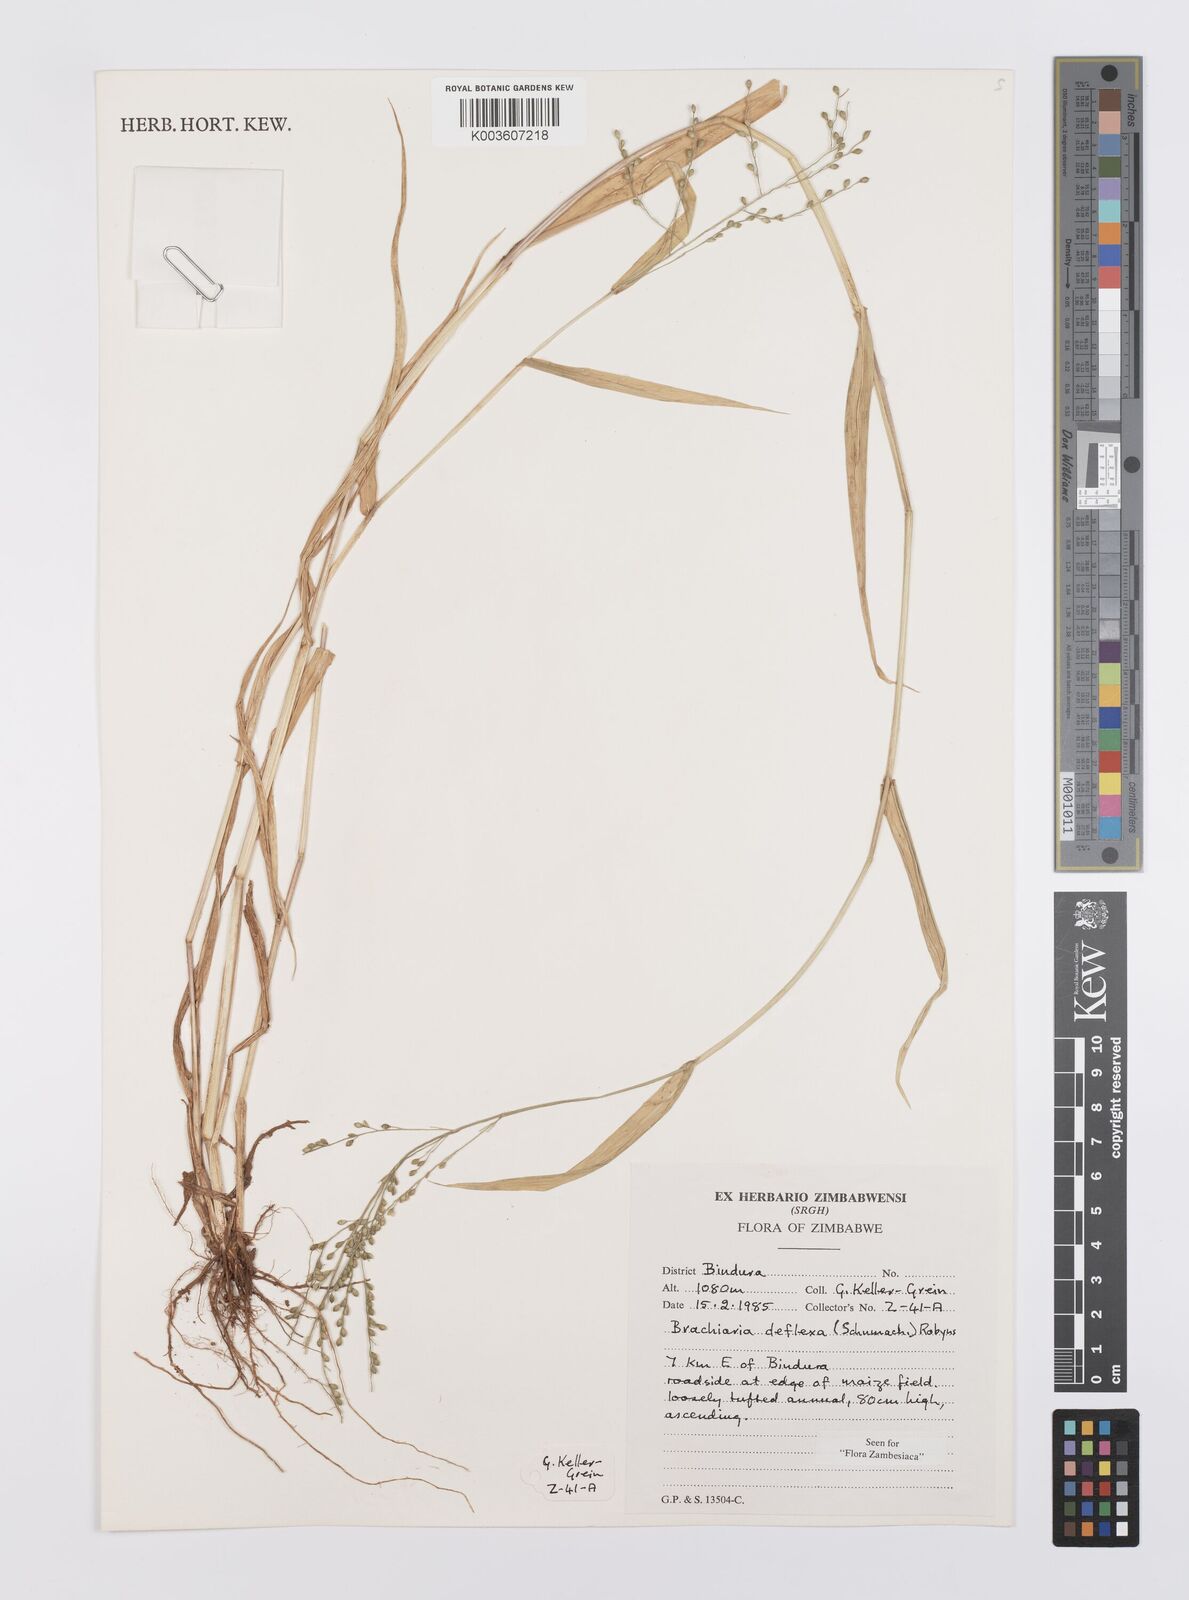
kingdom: Plantae
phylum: Tracheophyta
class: Liliopsida
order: Poales
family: Poaceae
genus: Urochloa
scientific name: Urochloa deflexa
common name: Guinea millet
